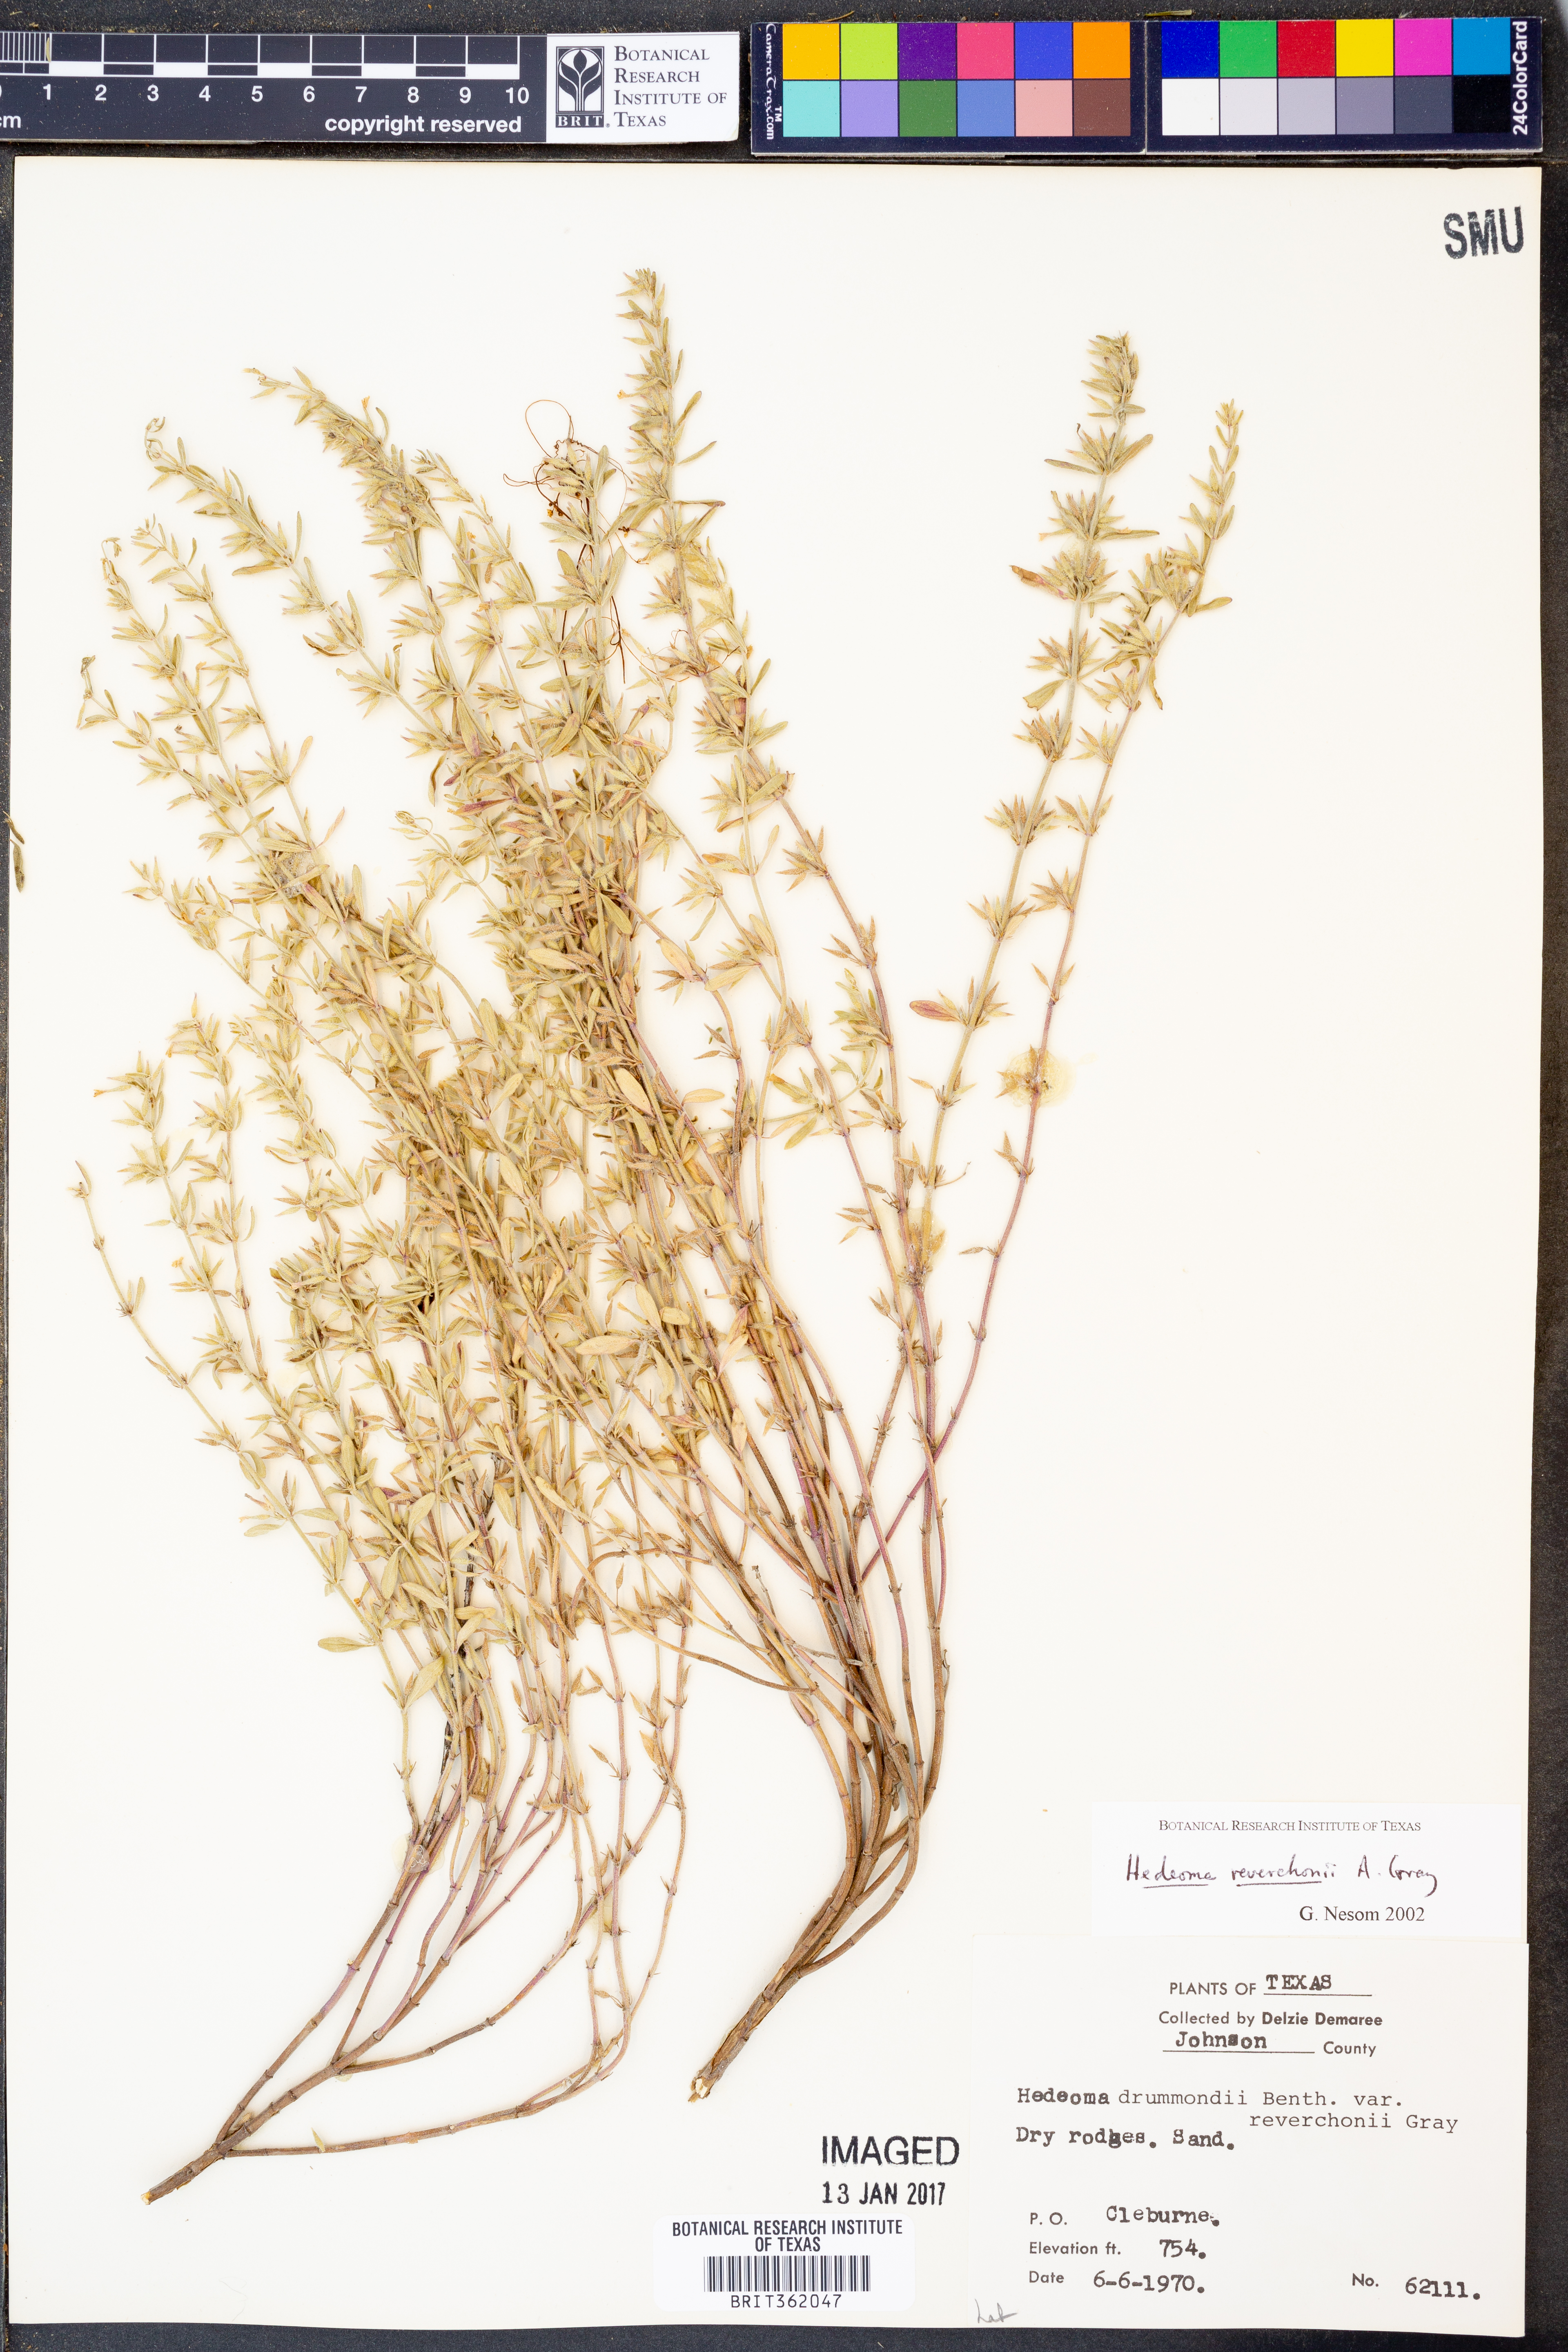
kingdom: Plantae
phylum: Tracheophyta
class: Magnoliopsida
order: Lamiales
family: Lamiaceae
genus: Hedeoma
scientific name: Hedeoma reverchonii
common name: Reverchon's false penny-royal
